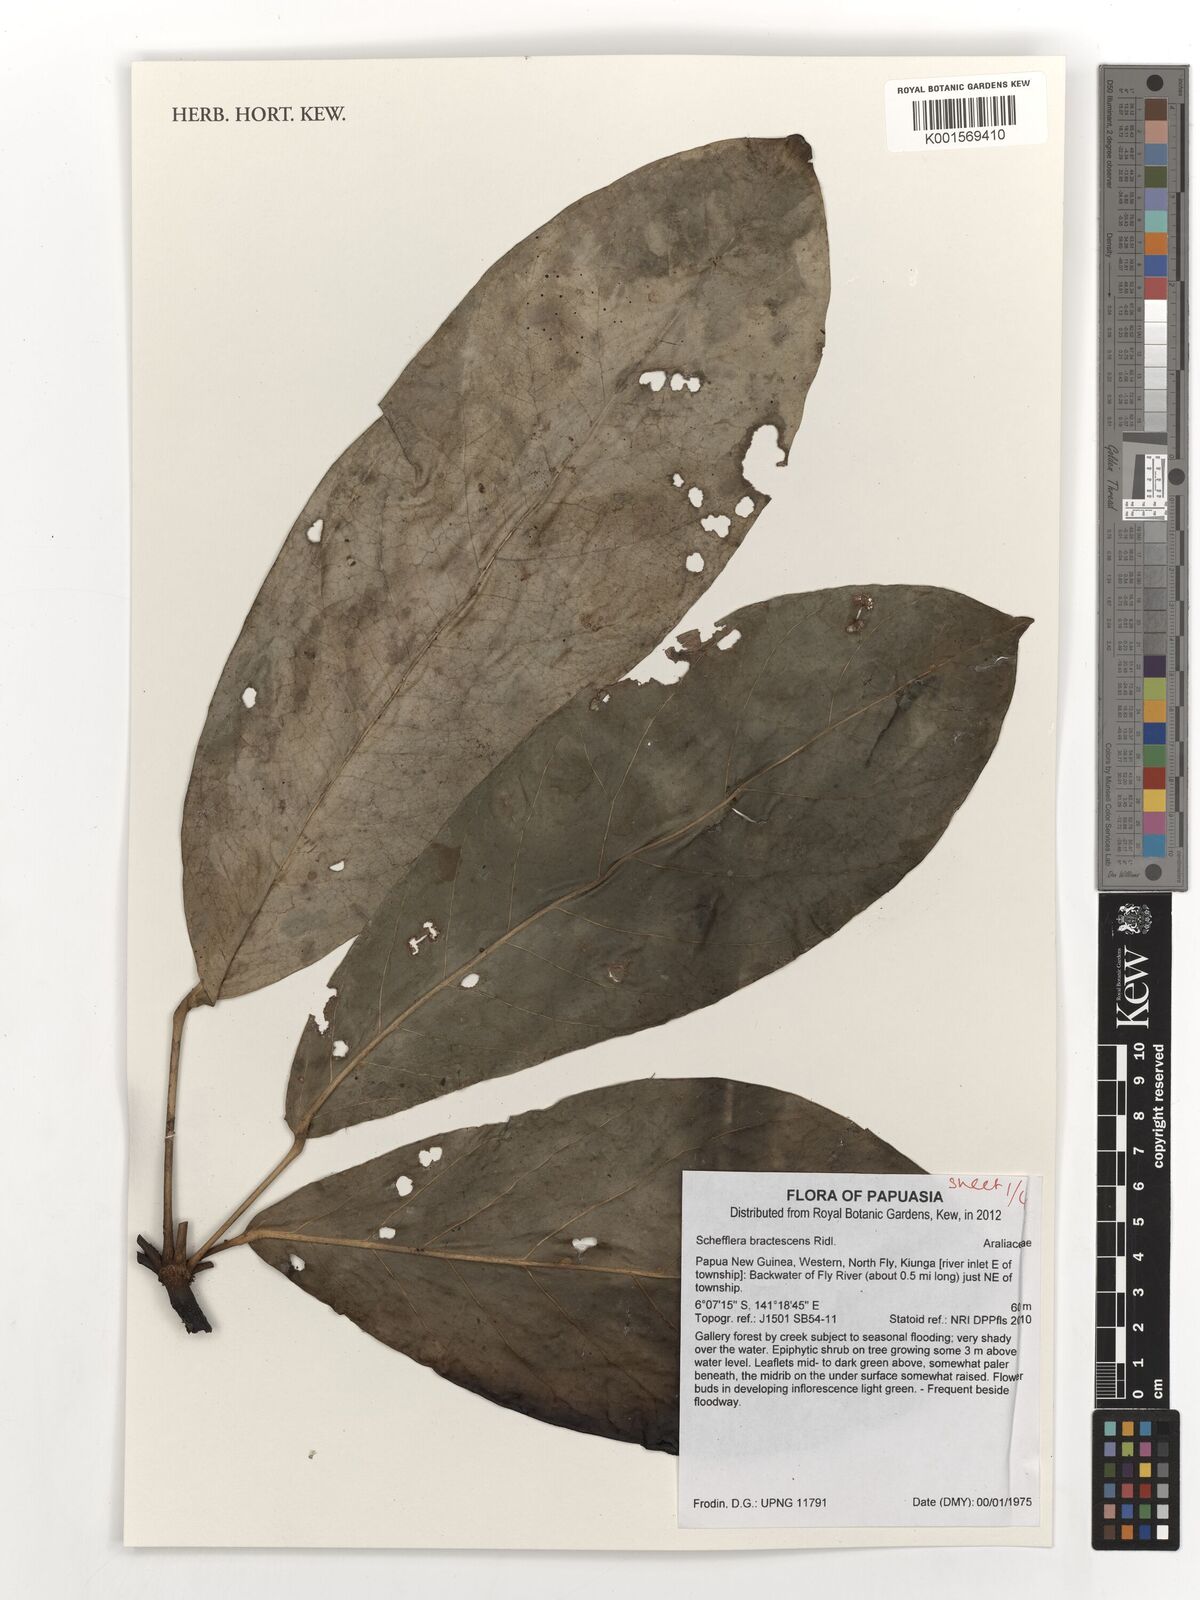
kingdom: Plantae
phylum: Tracheophyta
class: Magnoliopsida
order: Apiales
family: Araliaceae
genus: Heptapleurum
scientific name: Heptapleurum bractescens
